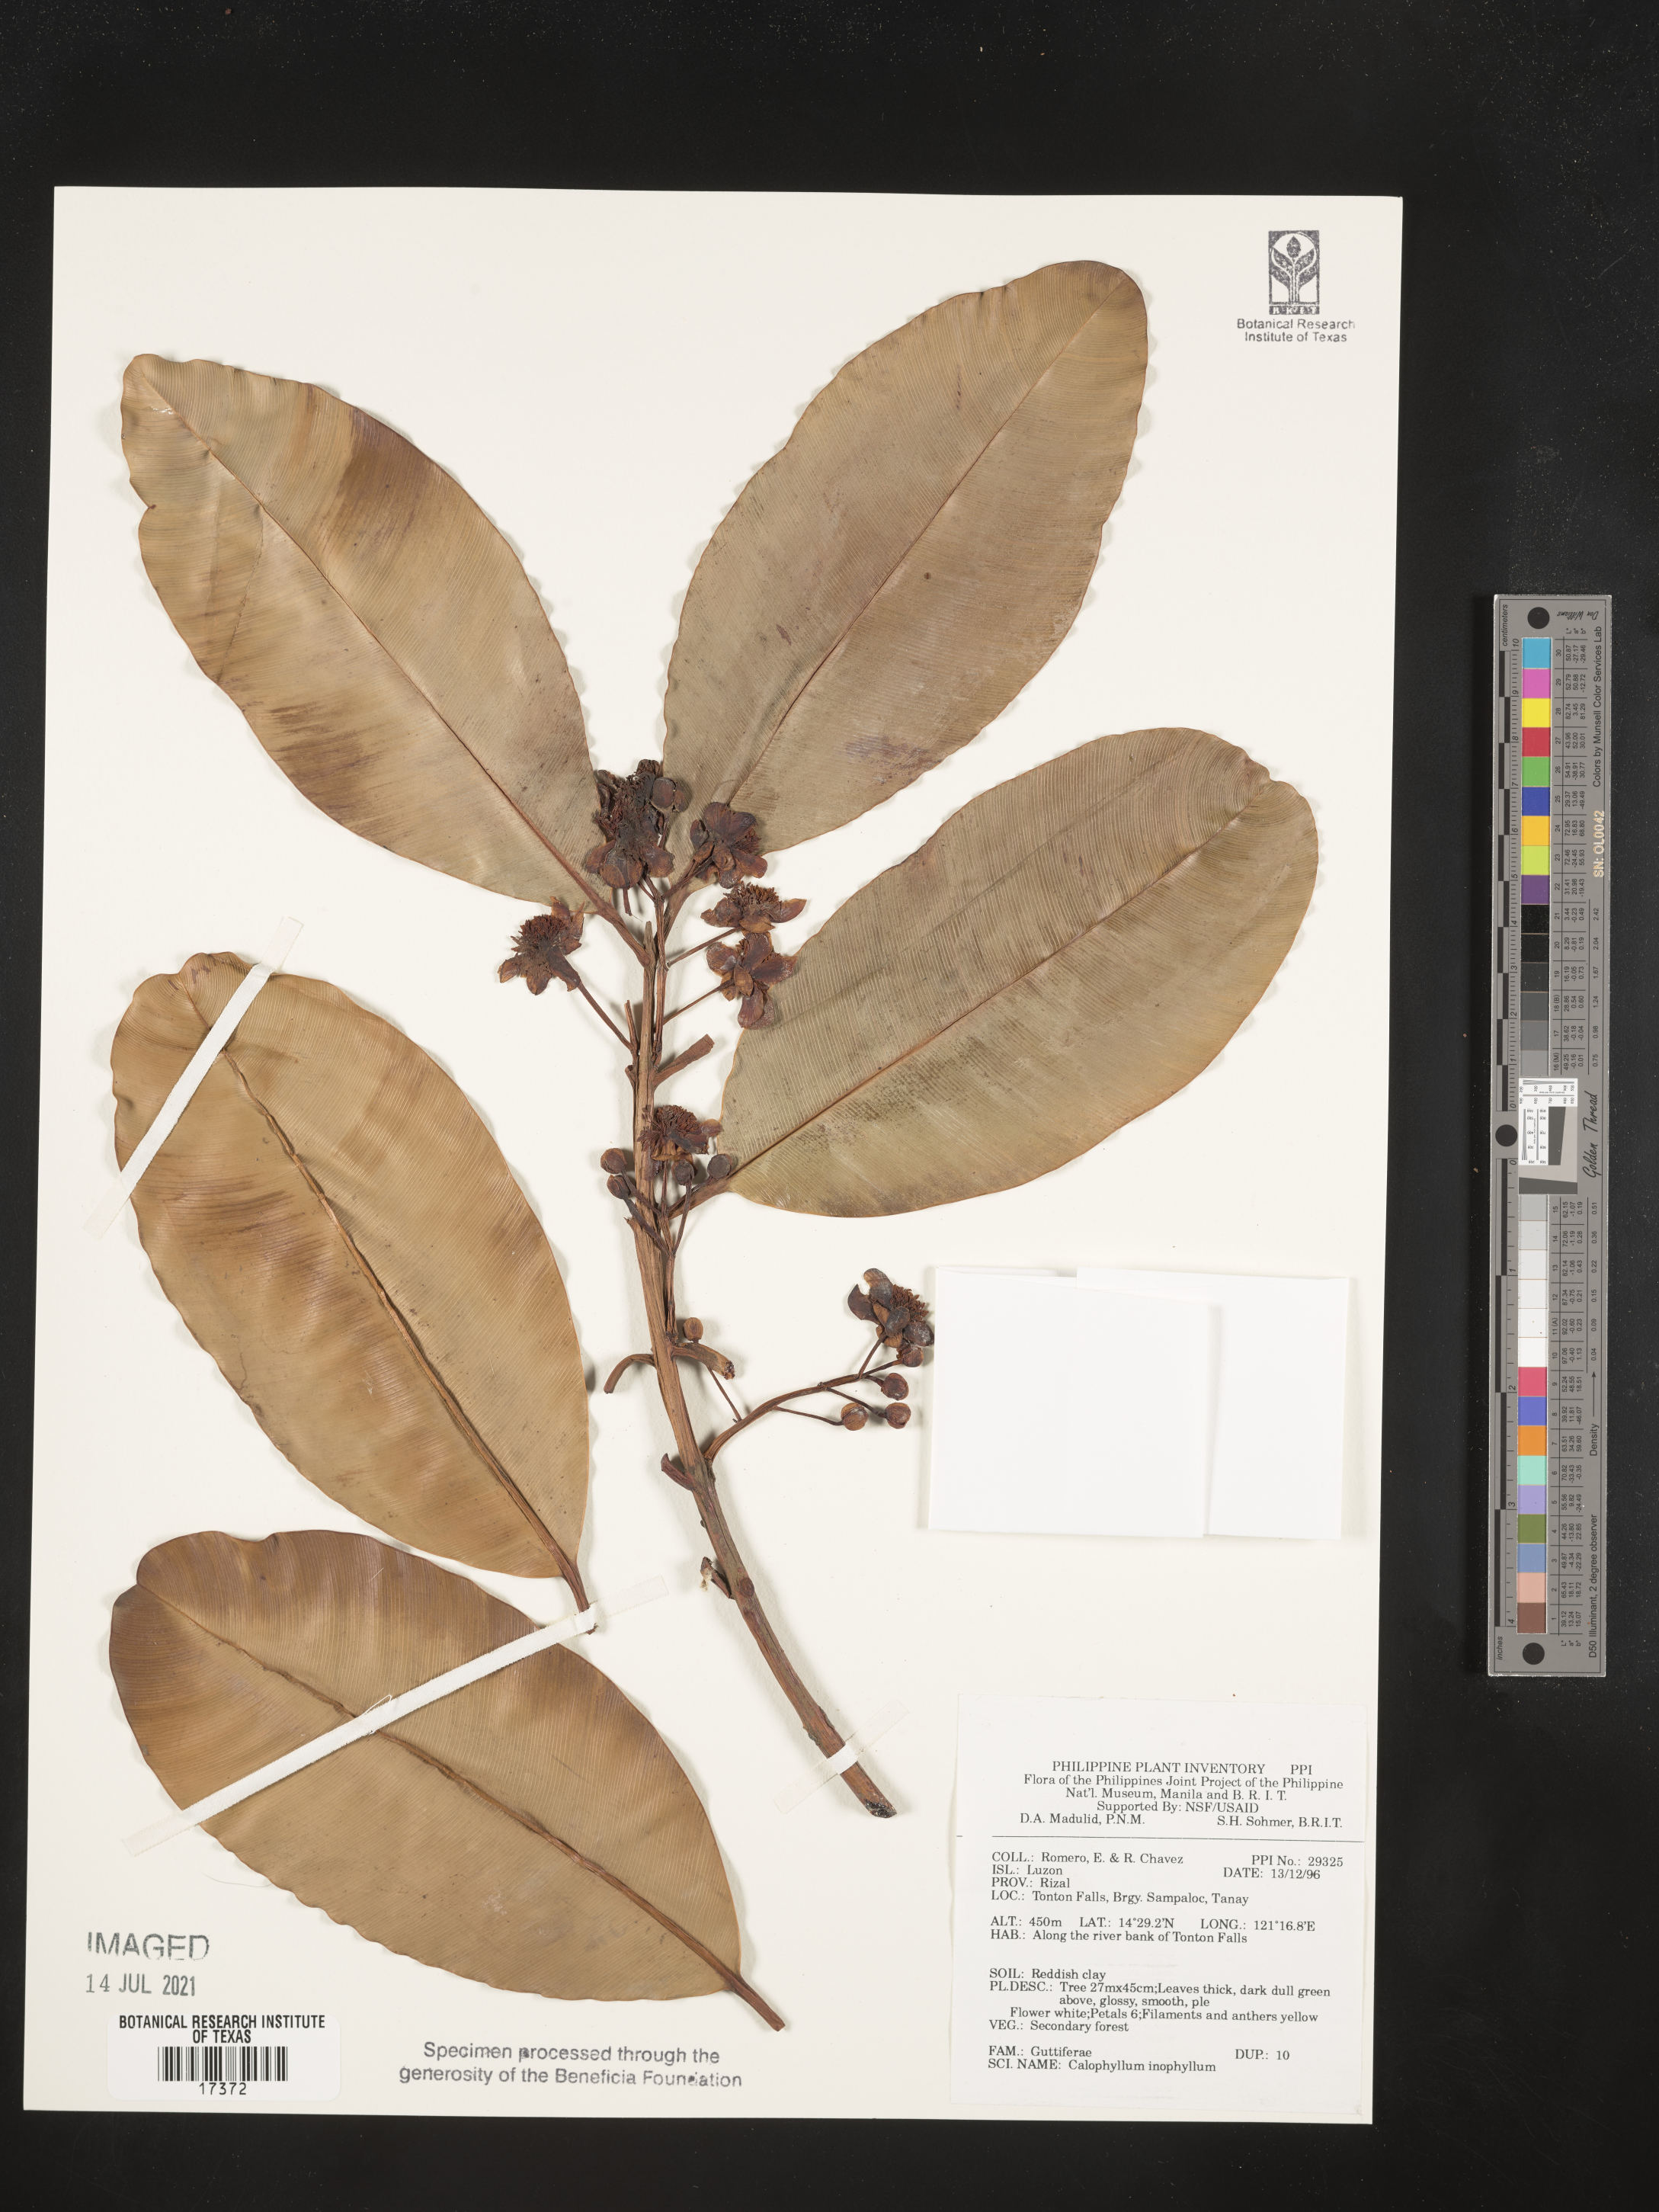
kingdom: Plantae
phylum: Tracheophyta
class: Magnoliopsida
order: Malpighiales
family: Calophyllaceae
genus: Calophyllum
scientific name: Calophyllum inophyllum
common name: Alexandrian laurel
